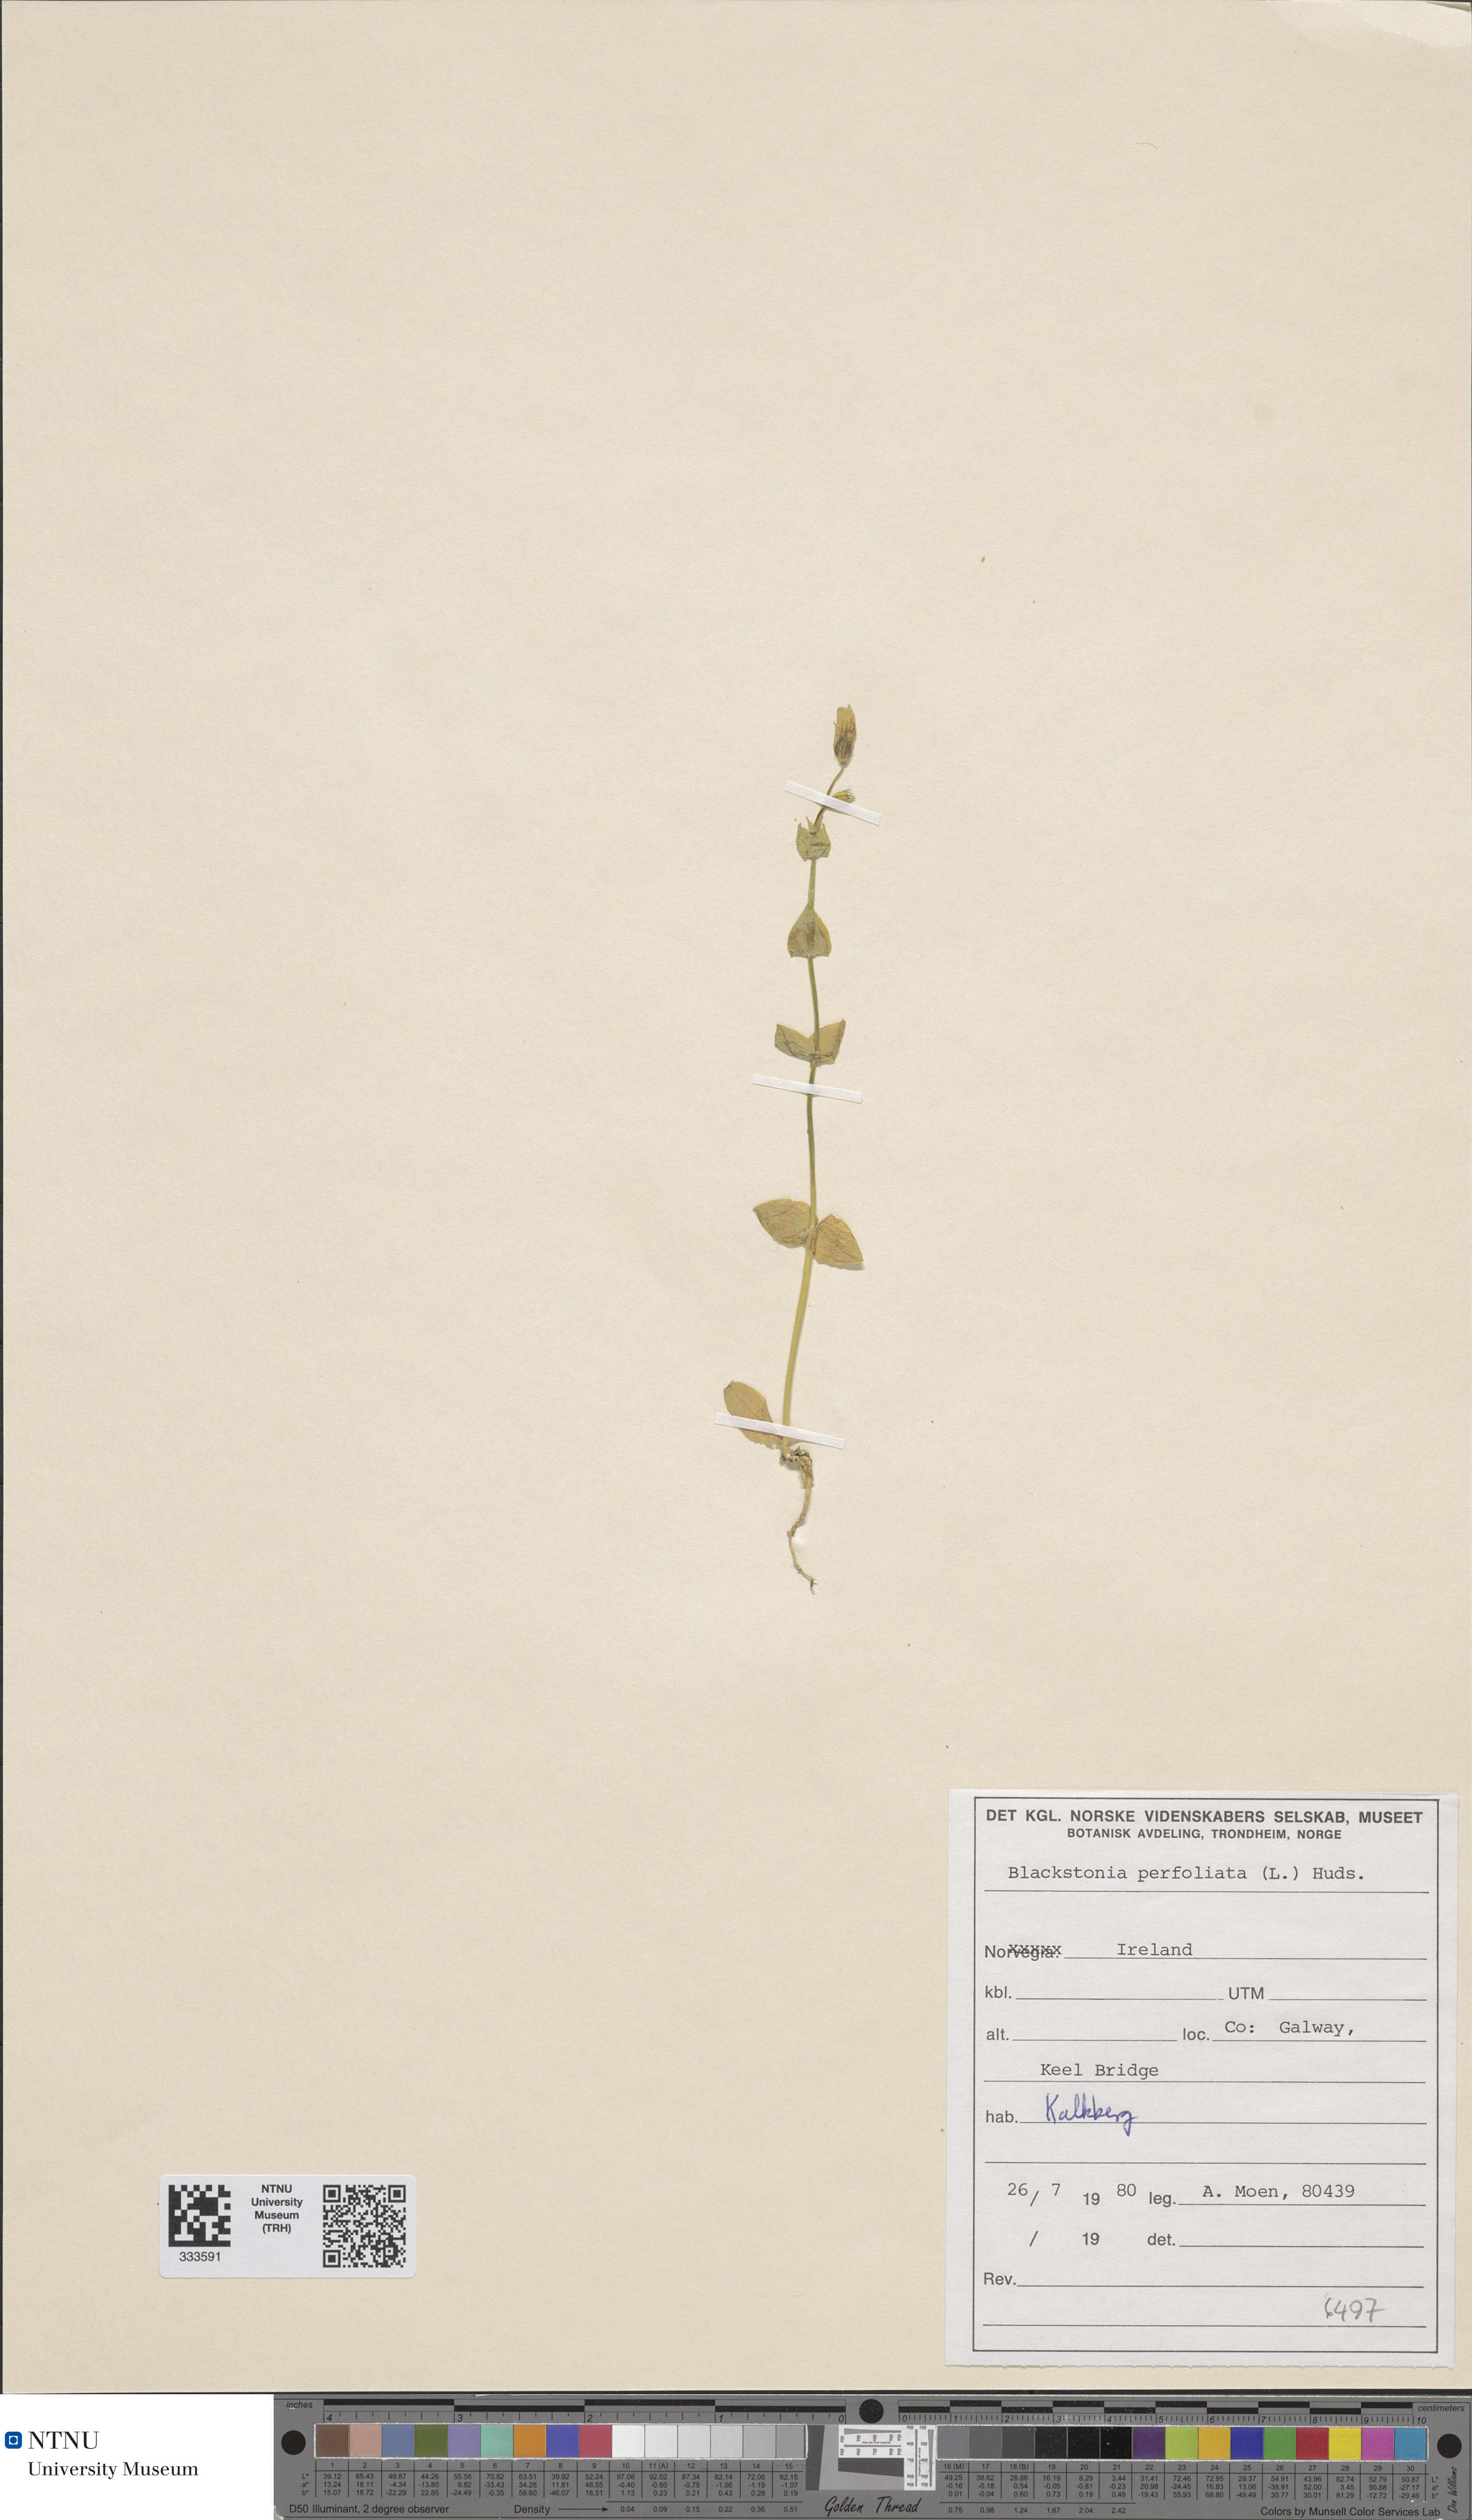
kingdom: Plantae
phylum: Tracheophyta
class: Magnoliopsida
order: Gentianales
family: Gentianaceae
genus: Blackstonia
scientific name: Blackstonia perfoliata
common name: Yellow-wort
